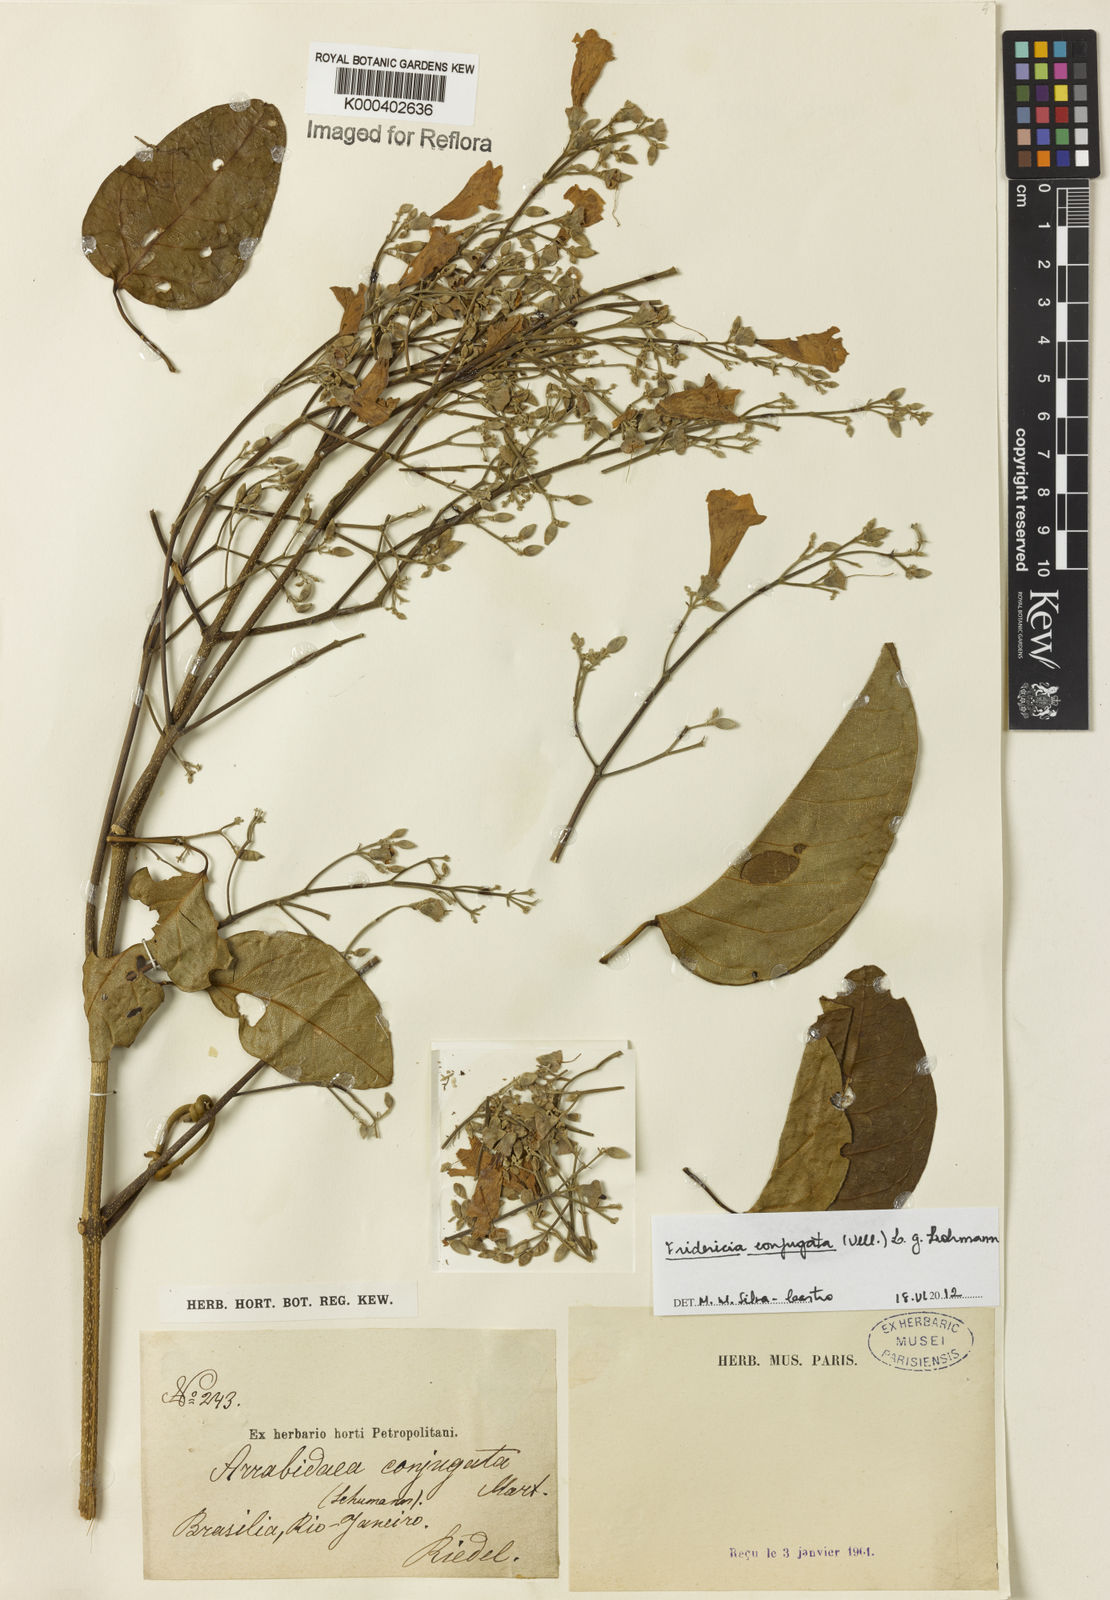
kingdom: Plantae
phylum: Tracheophyta
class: Magnoliopsida
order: Lamiales
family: Bignoniaceae
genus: Fridericia
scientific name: Fridericia conjugata
